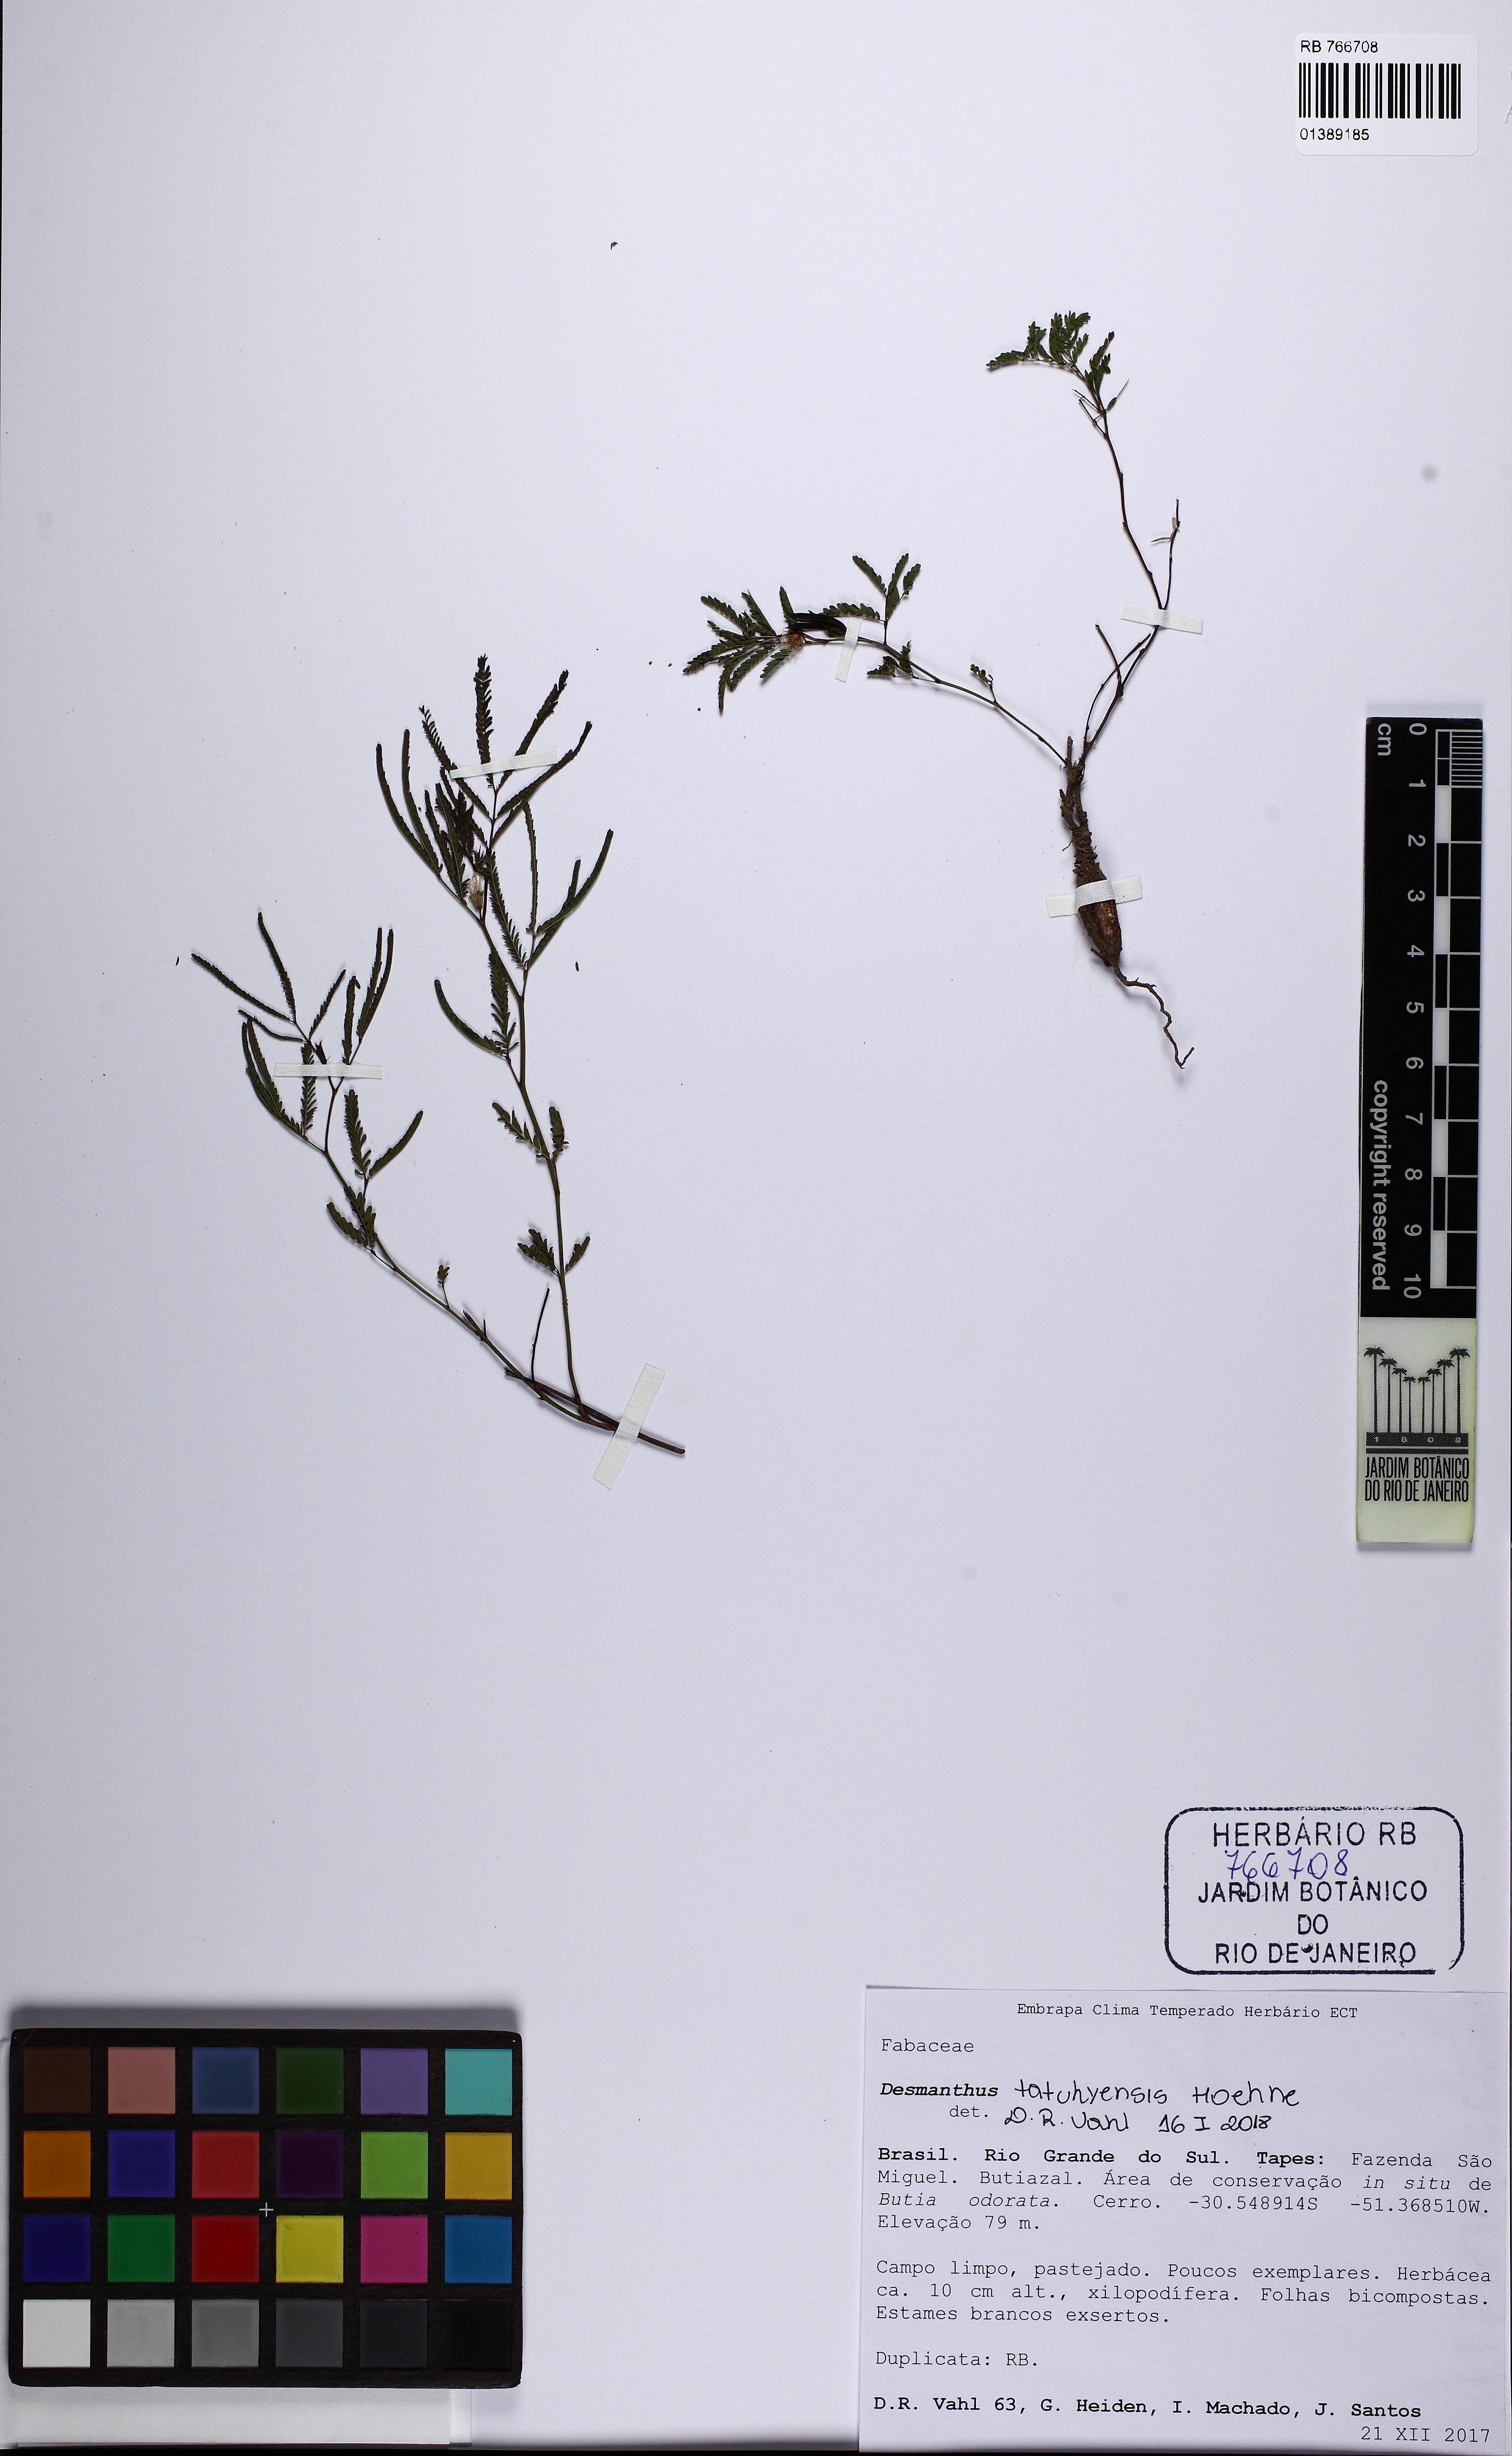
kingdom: Plantae
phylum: Tracheophyta
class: Magnoliopsida
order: Fabales
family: Fabaceae
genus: Desmanthus
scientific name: Desmanthus tatuhyensis
